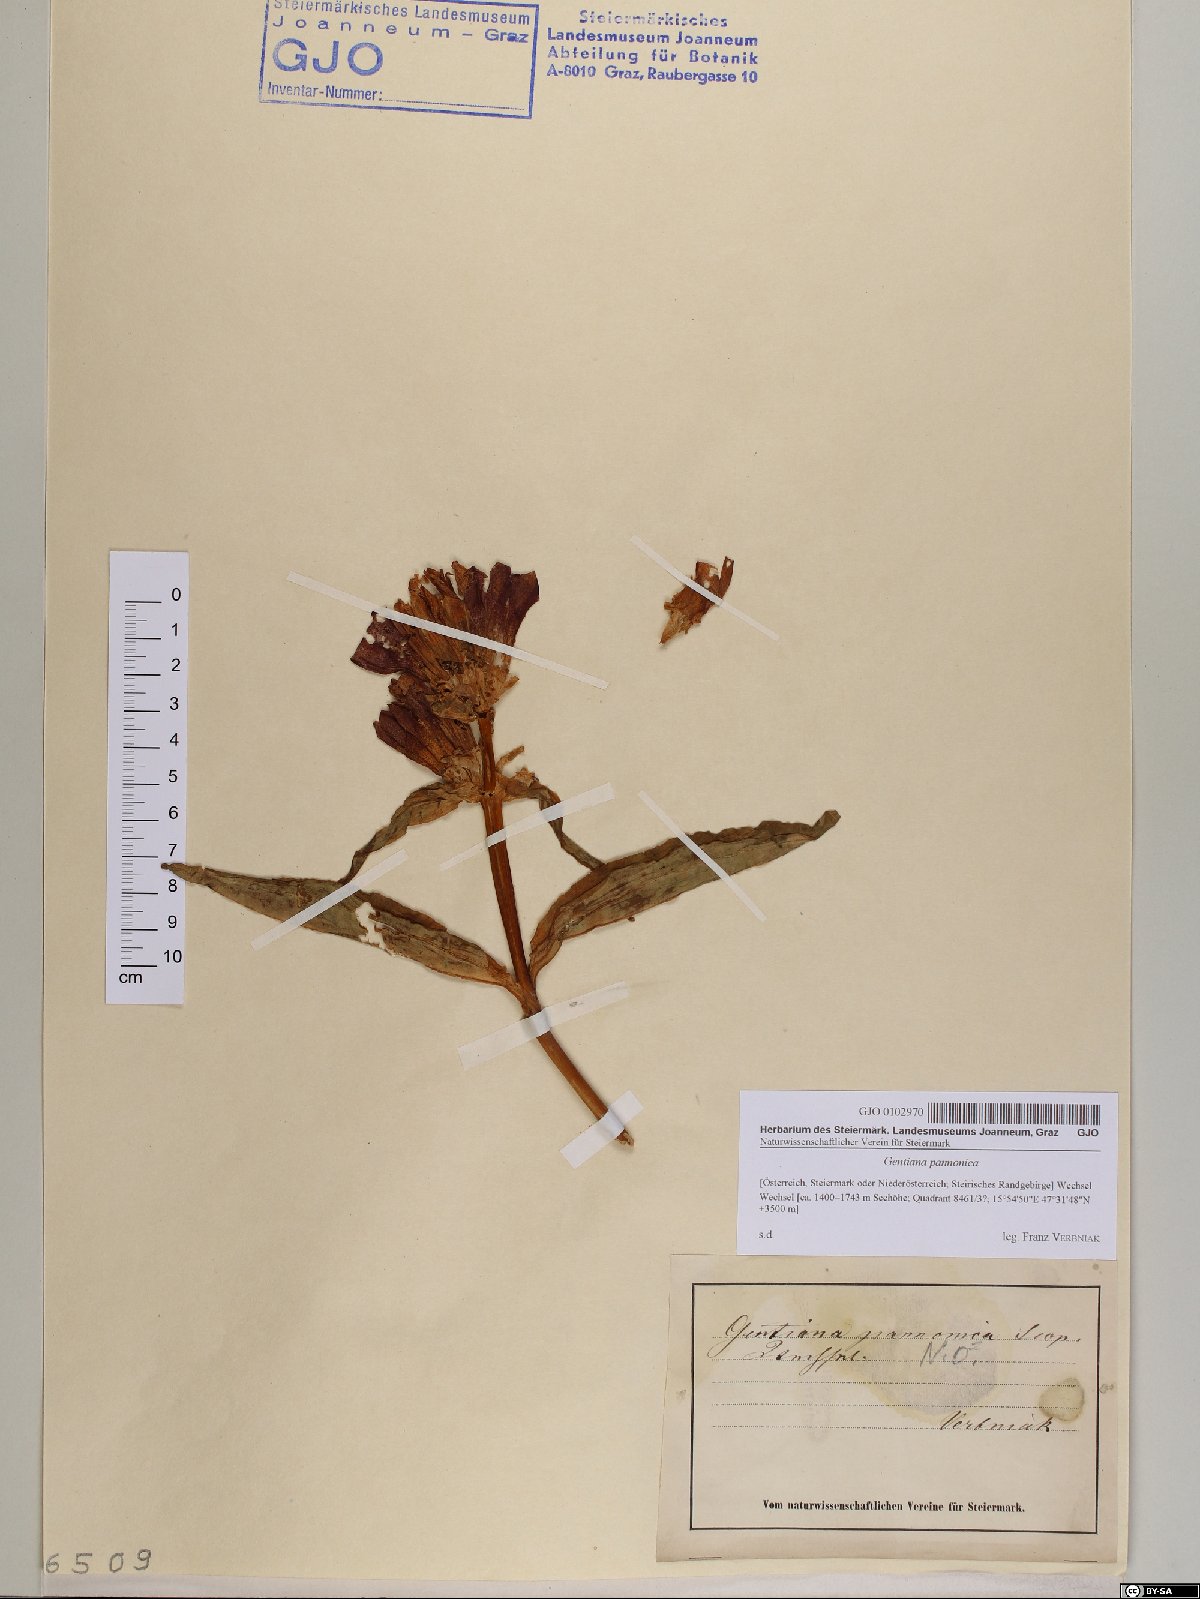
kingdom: Plantae
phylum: Tracheophyta
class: Magnoliopsida
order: Gentianales
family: Gentianaceae
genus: Gentiana
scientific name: Gentiana pannonica
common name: Hungarian gentian
